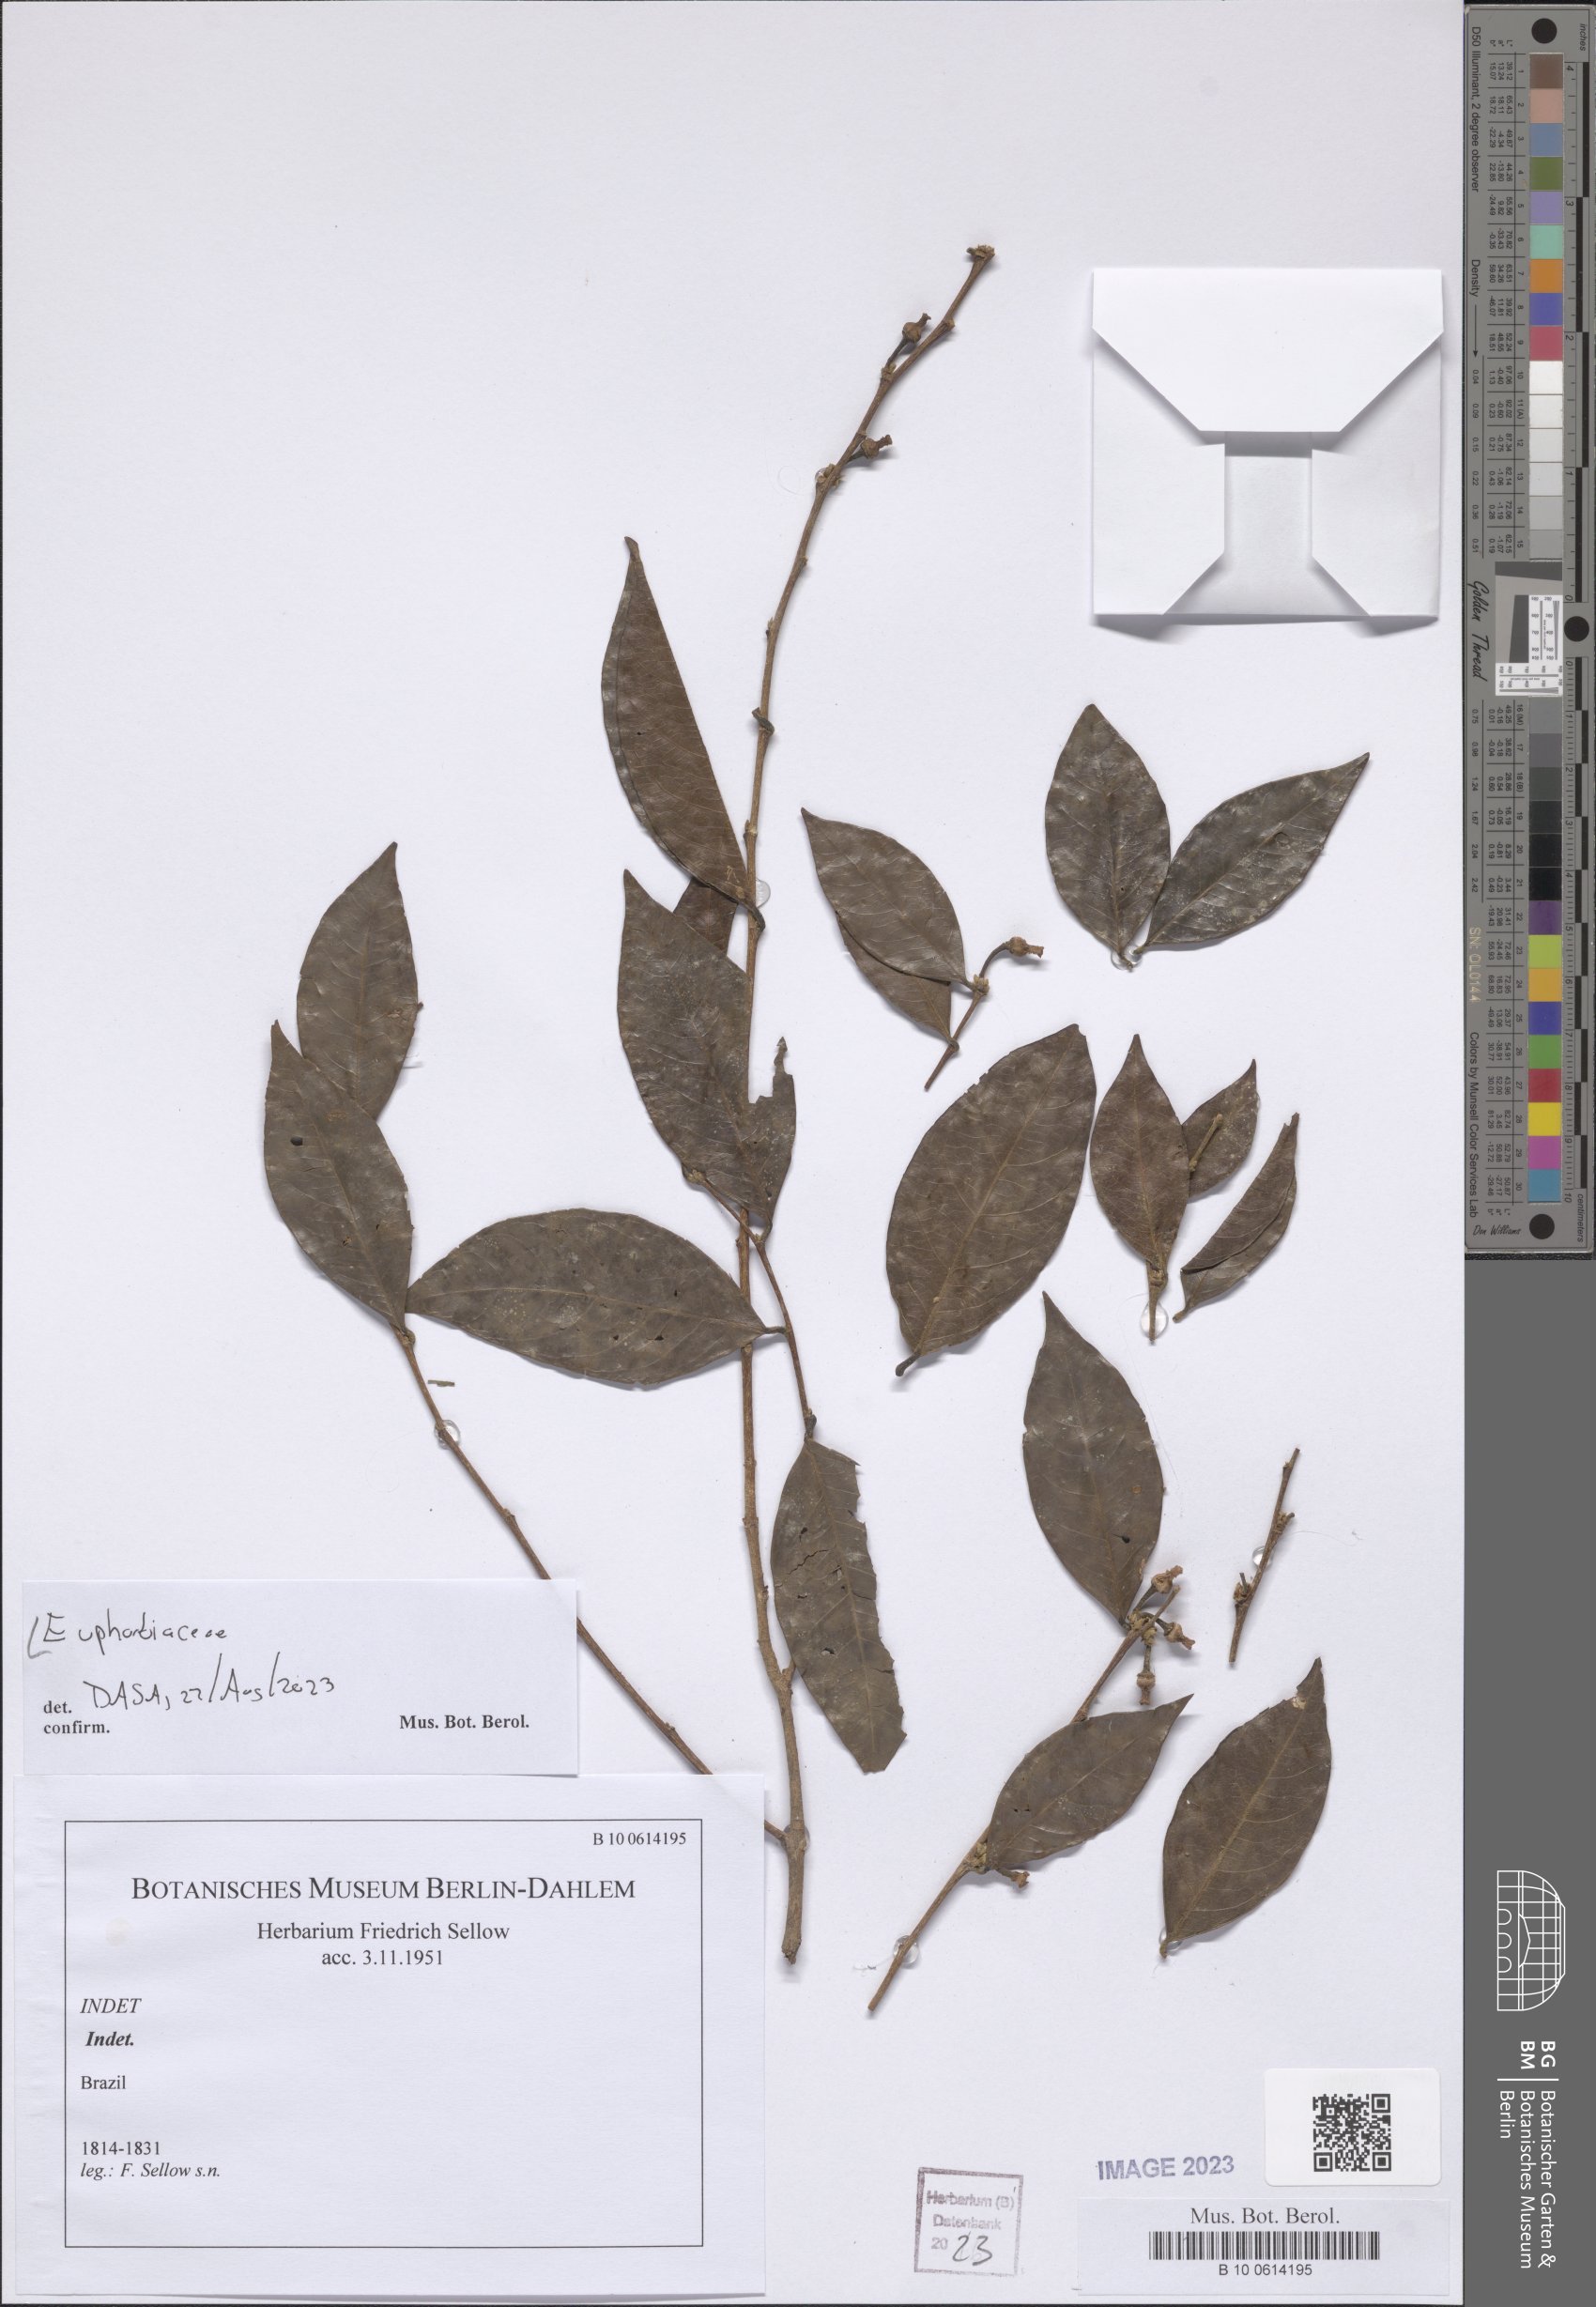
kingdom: Plantae
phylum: Tracheophyta
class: Magnoliopsida
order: Malpighiales
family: Euphorbiaceae
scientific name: Euphorbiaceae
